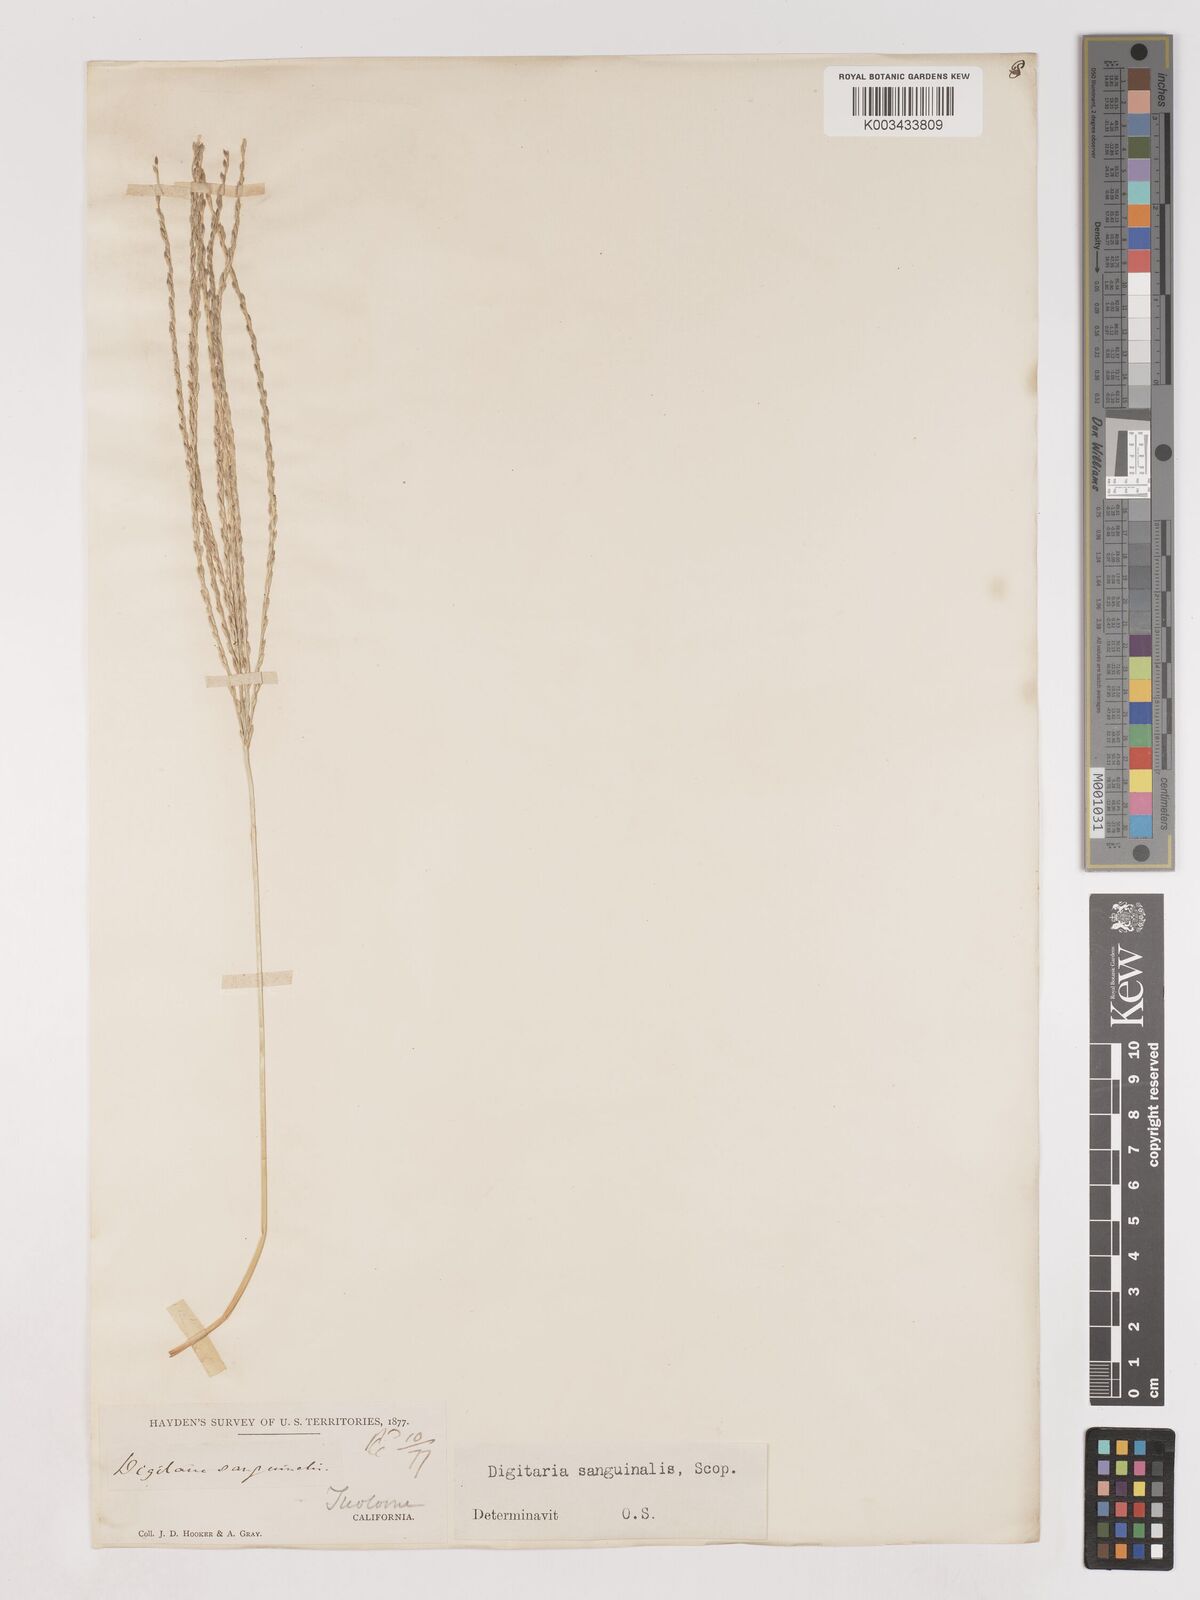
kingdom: Plantae
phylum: Tracheophyta
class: Liliopsida
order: Poales
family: Poaceae
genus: Digitaria
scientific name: Digitaria sanguinalis
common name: Hairy crabgrass
